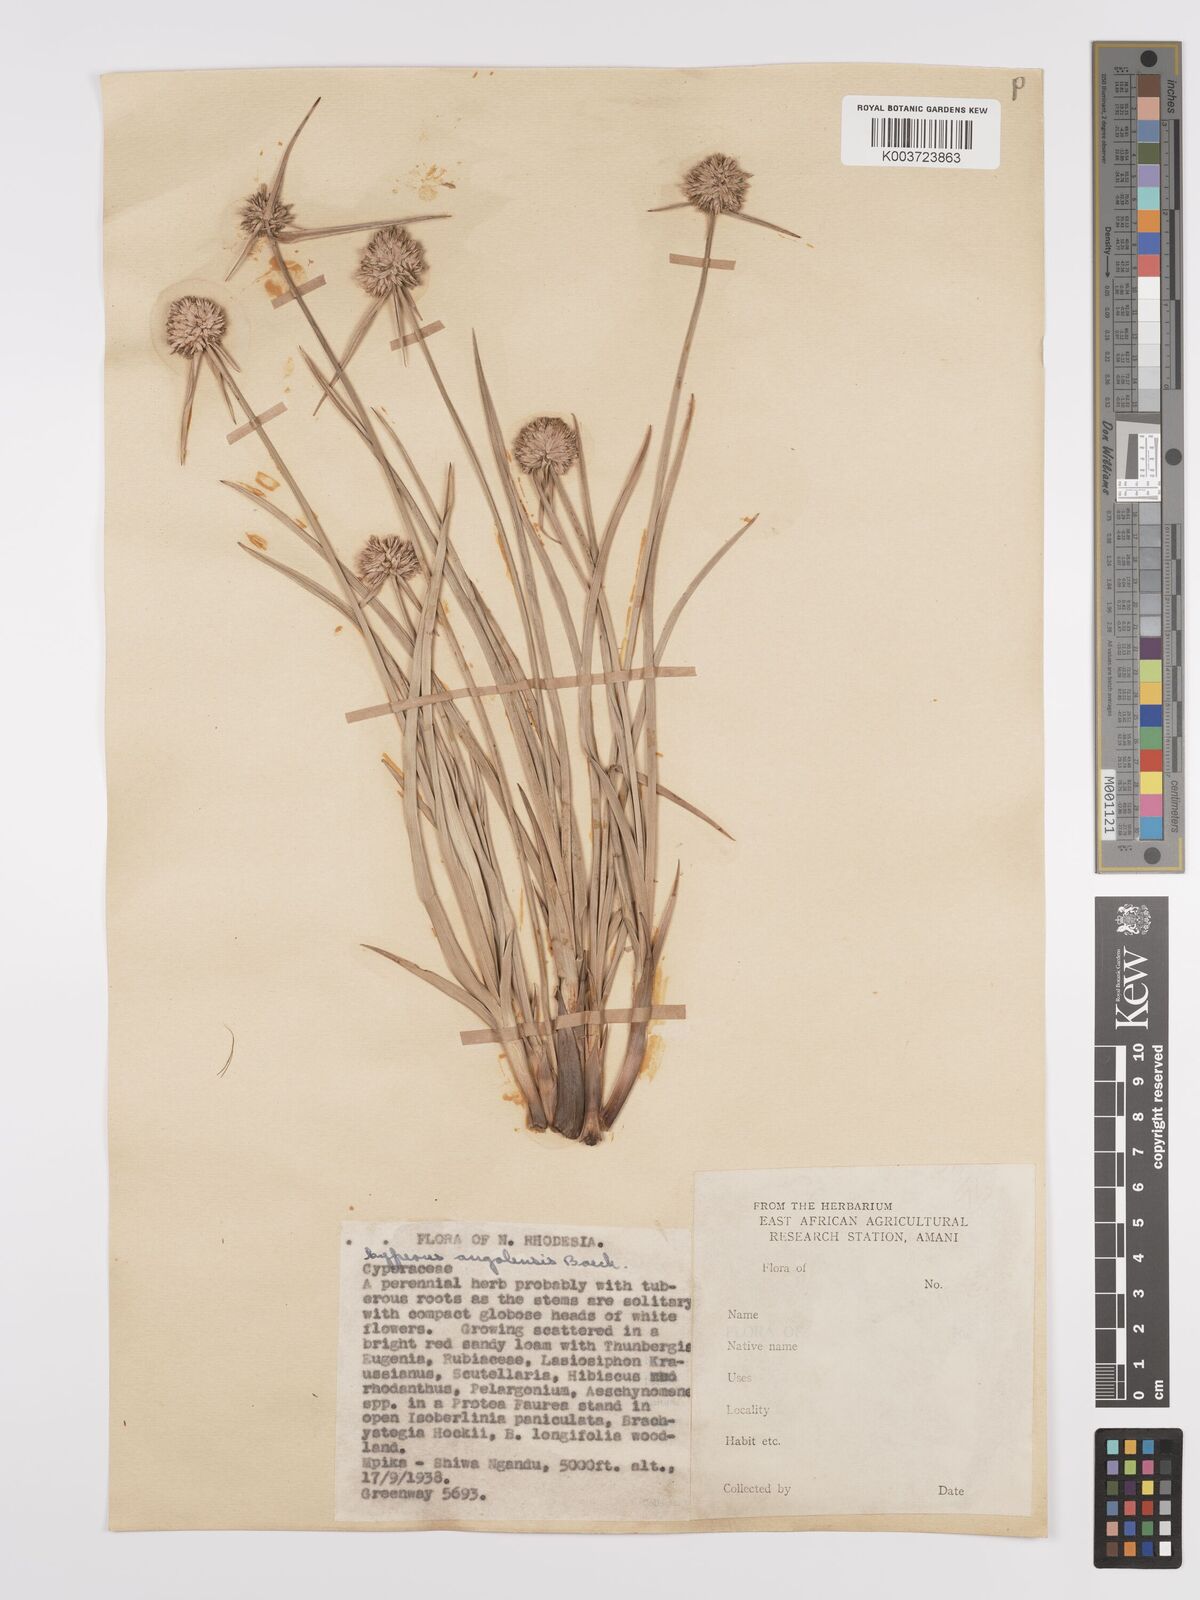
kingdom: Plantae
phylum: Tracheophyta
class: Liliopsida
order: Poales
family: Cyperaceae
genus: Cyperus
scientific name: Cyperus angolensis
